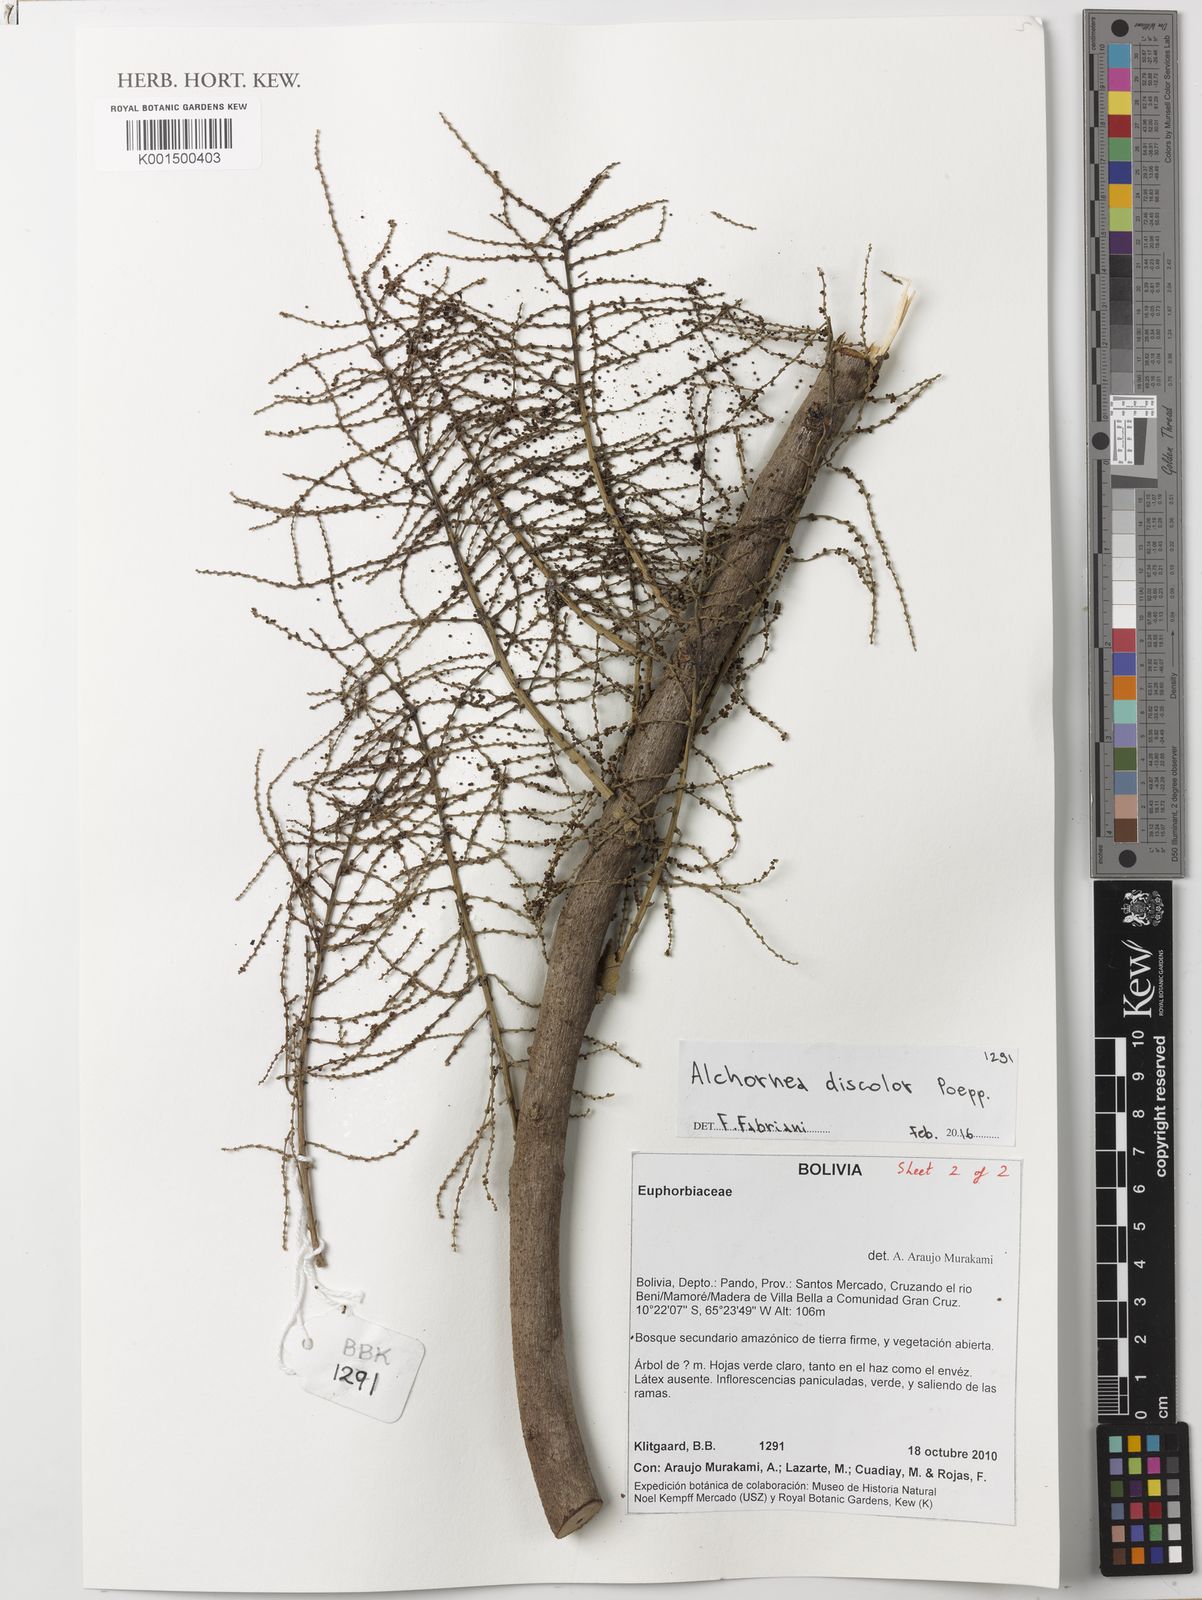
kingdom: Plantae
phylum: Tracheophyta
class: Magnoliopsida
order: Malpighiales
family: Euphorbiaceae
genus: Alchornea
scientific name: Alchornea discolor
